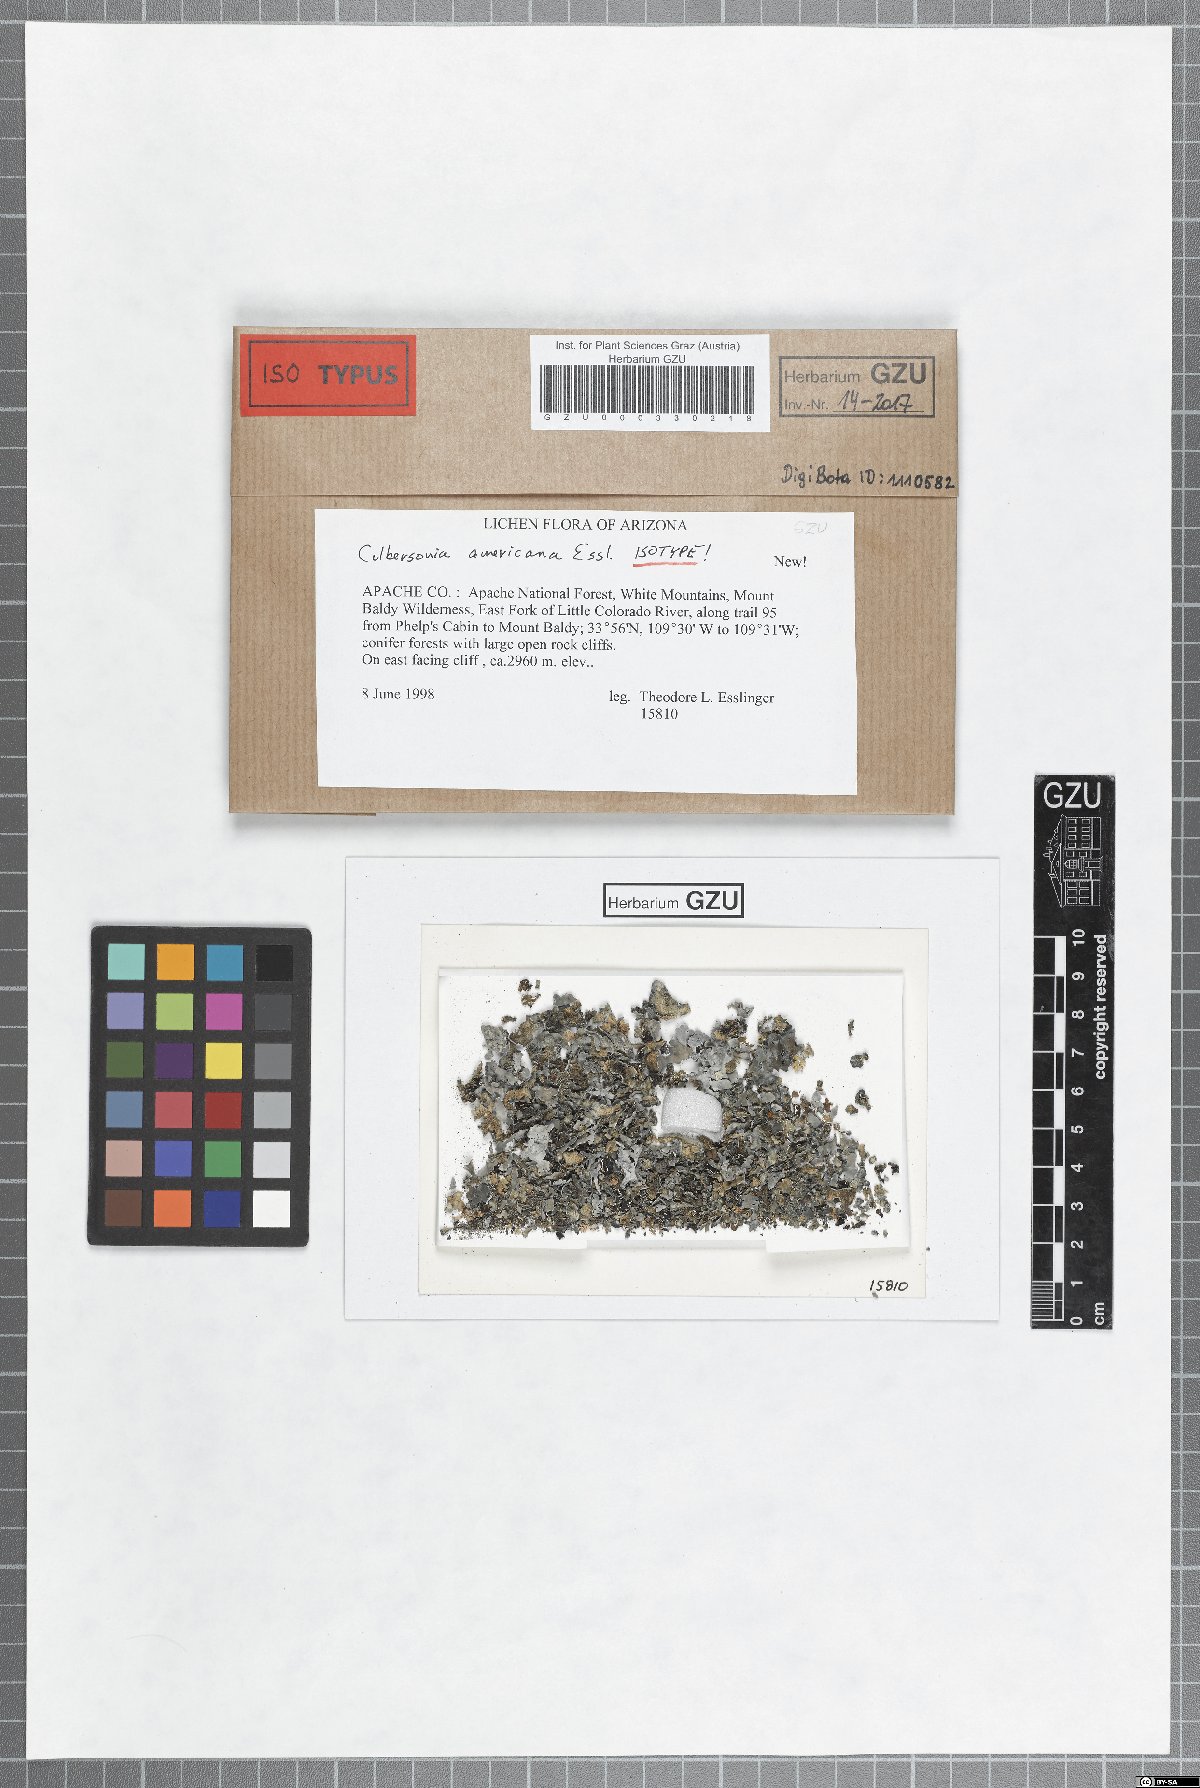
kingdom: Fungi
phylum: Ascomycota
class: Lecanoromycetes
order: Caliciales
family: Physciaceae
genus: Culbersonia
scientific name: Culbersonia americana
